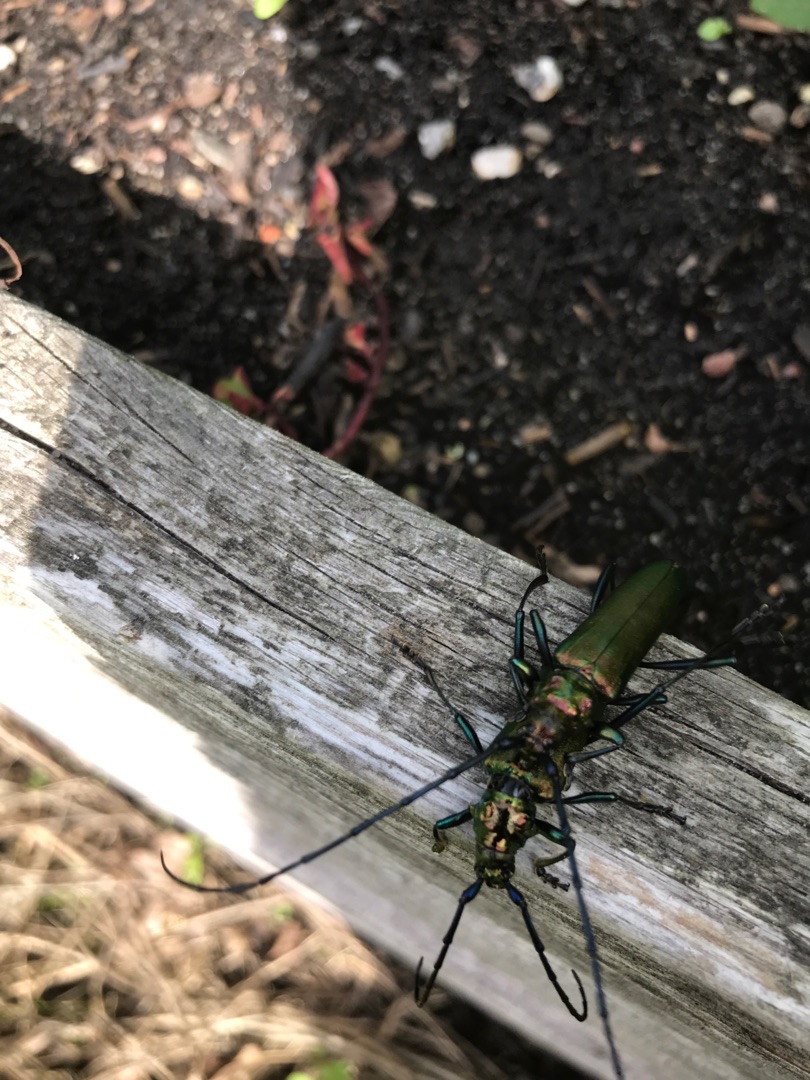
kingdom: Animalia
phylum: Arthropoda
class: Insecta
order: Coleoptera
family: Cerambycidae
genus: Aromia
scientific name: Aromia moschata
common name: Moskusbuk
